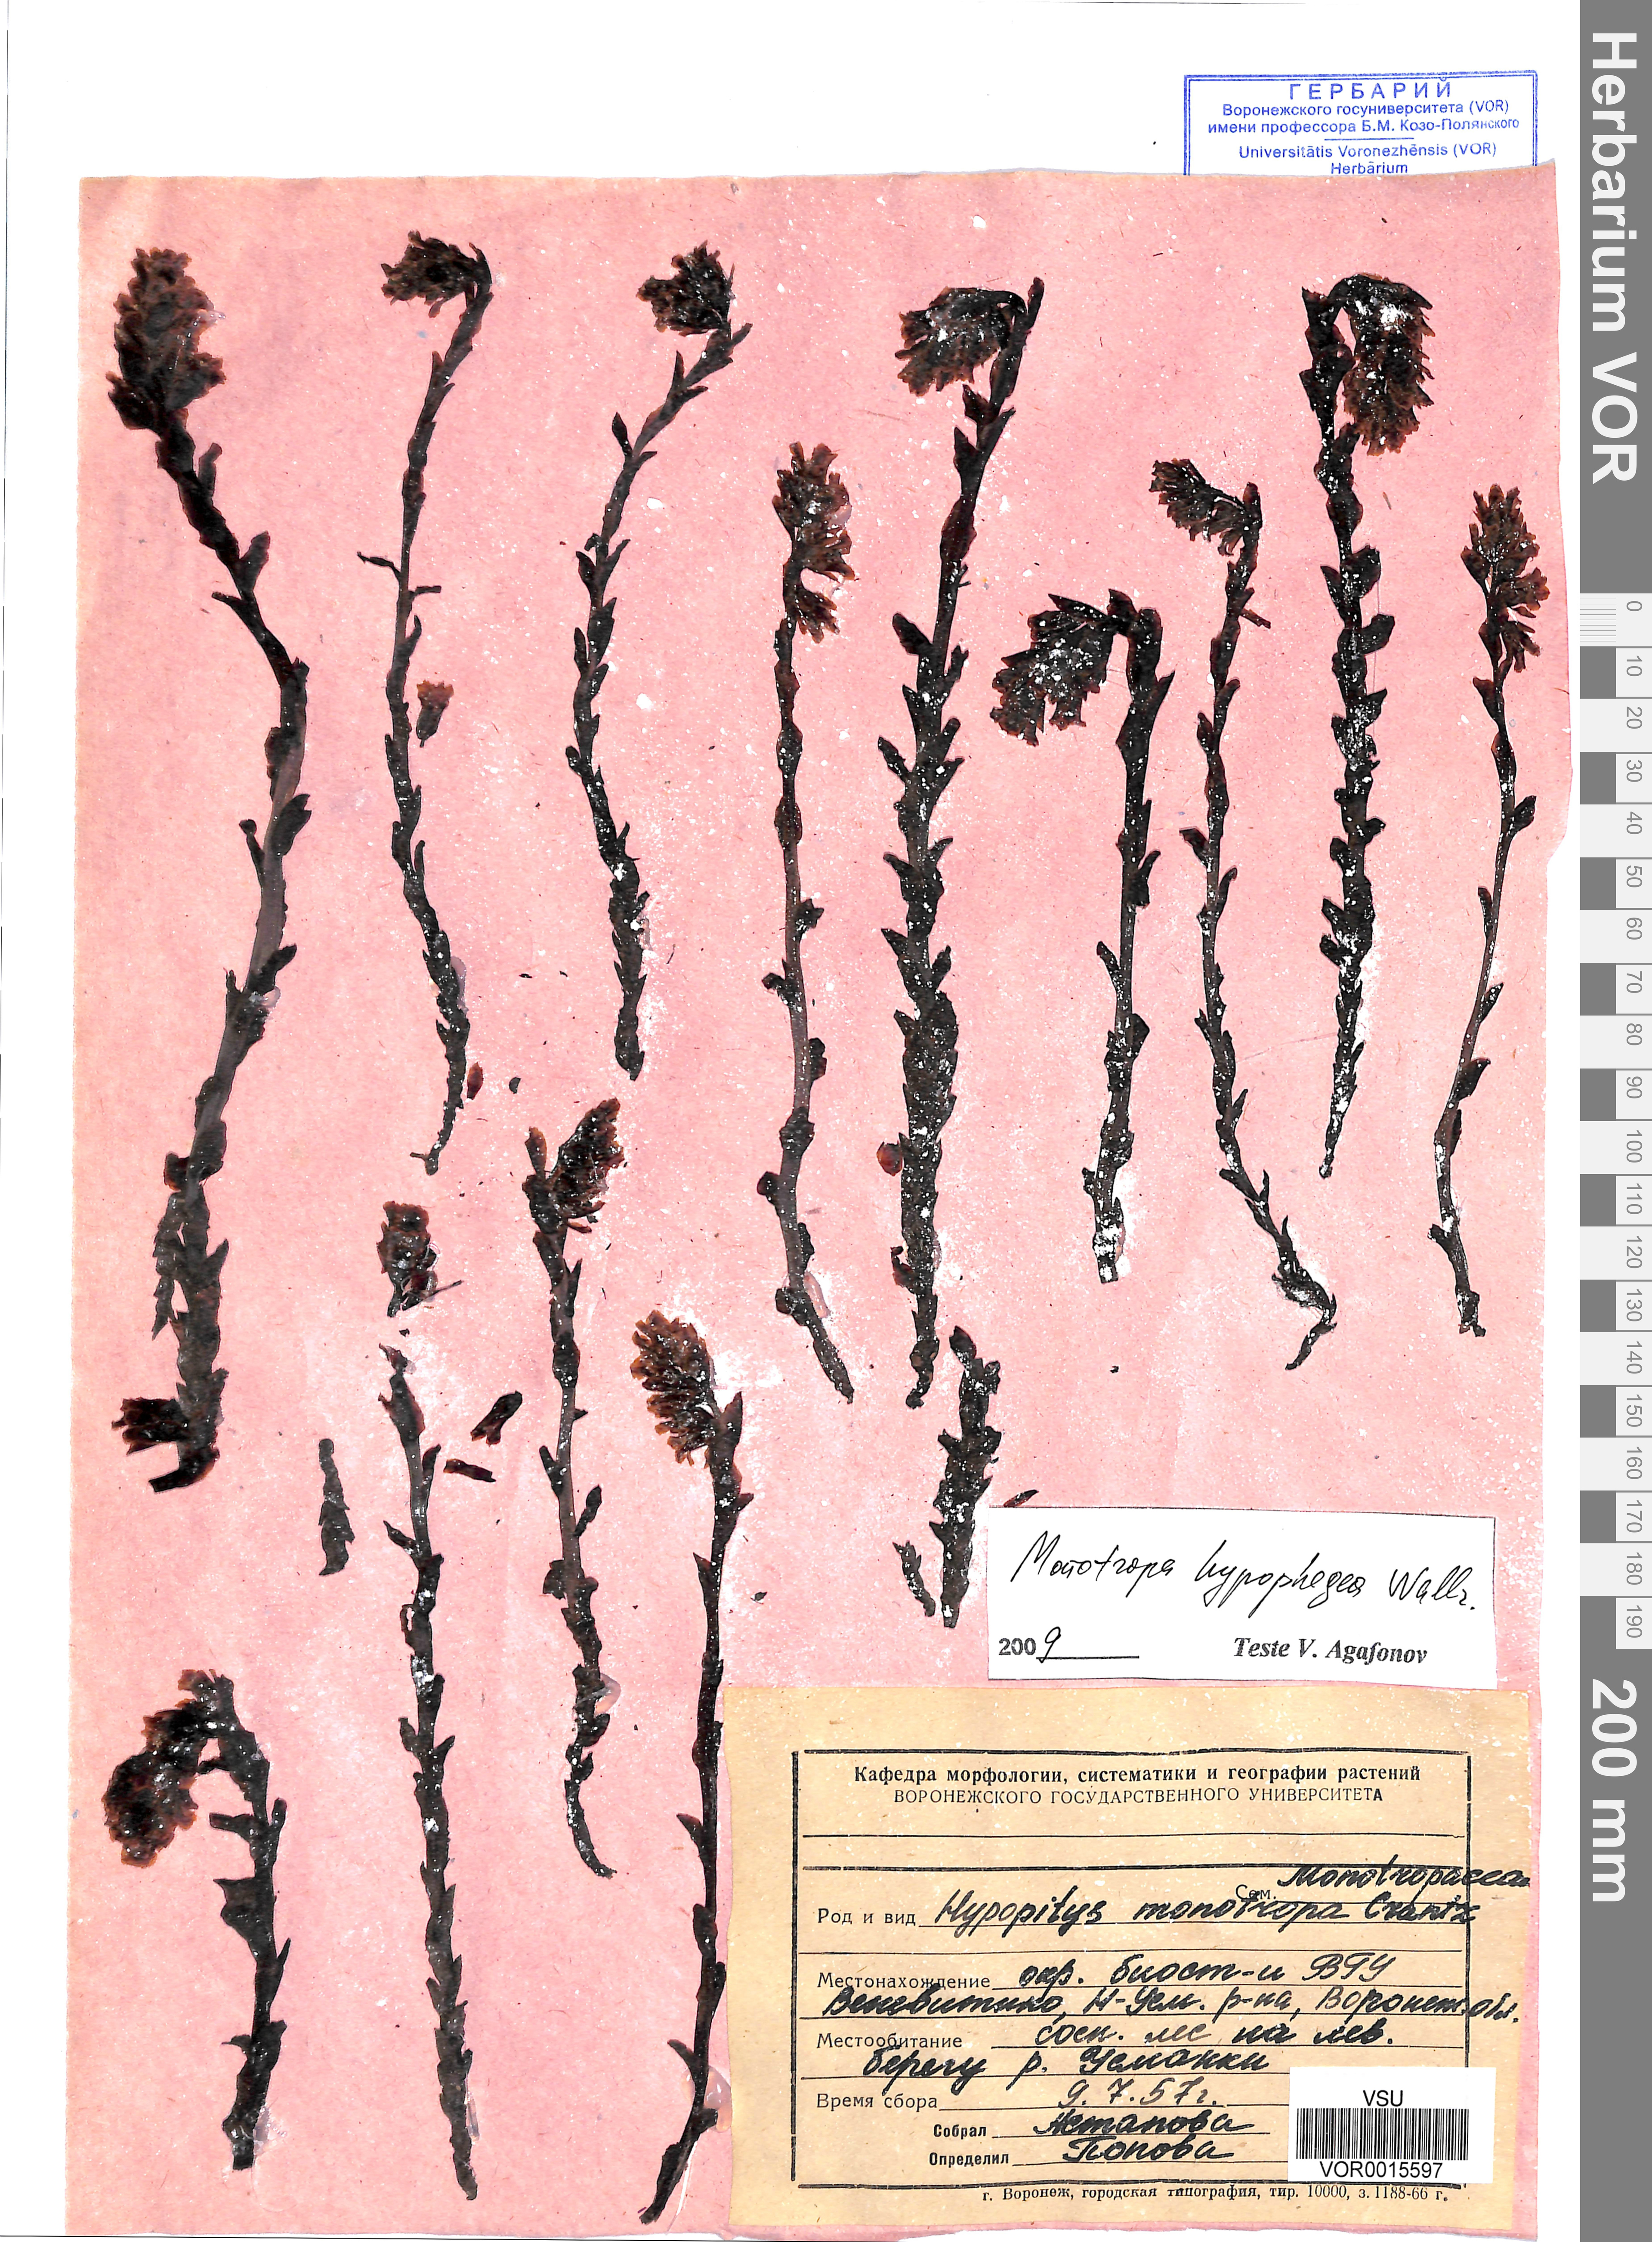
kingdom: Plantae
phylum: Tracheophyta
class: Magnoliopsida
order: Ericales
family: Ericaceae
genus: Hypopitys
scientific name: Hypopitys hypophegea
